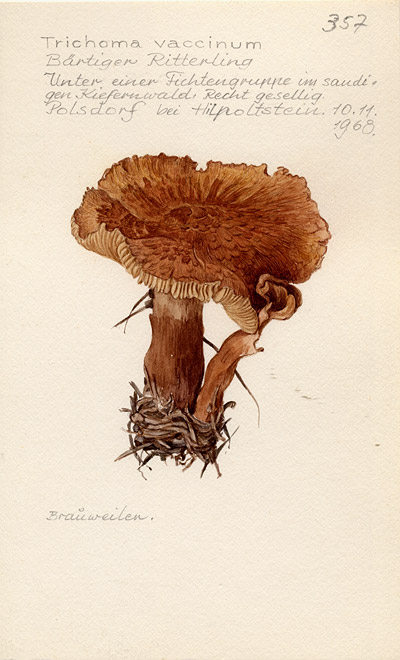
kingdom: Fungi
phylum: Basidiomycota
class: Agaricomycetes
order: Agaricales
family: Tricholomataceae
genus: Tricholoma
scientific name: Tricholoma vaccinum
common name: Scaly knight
